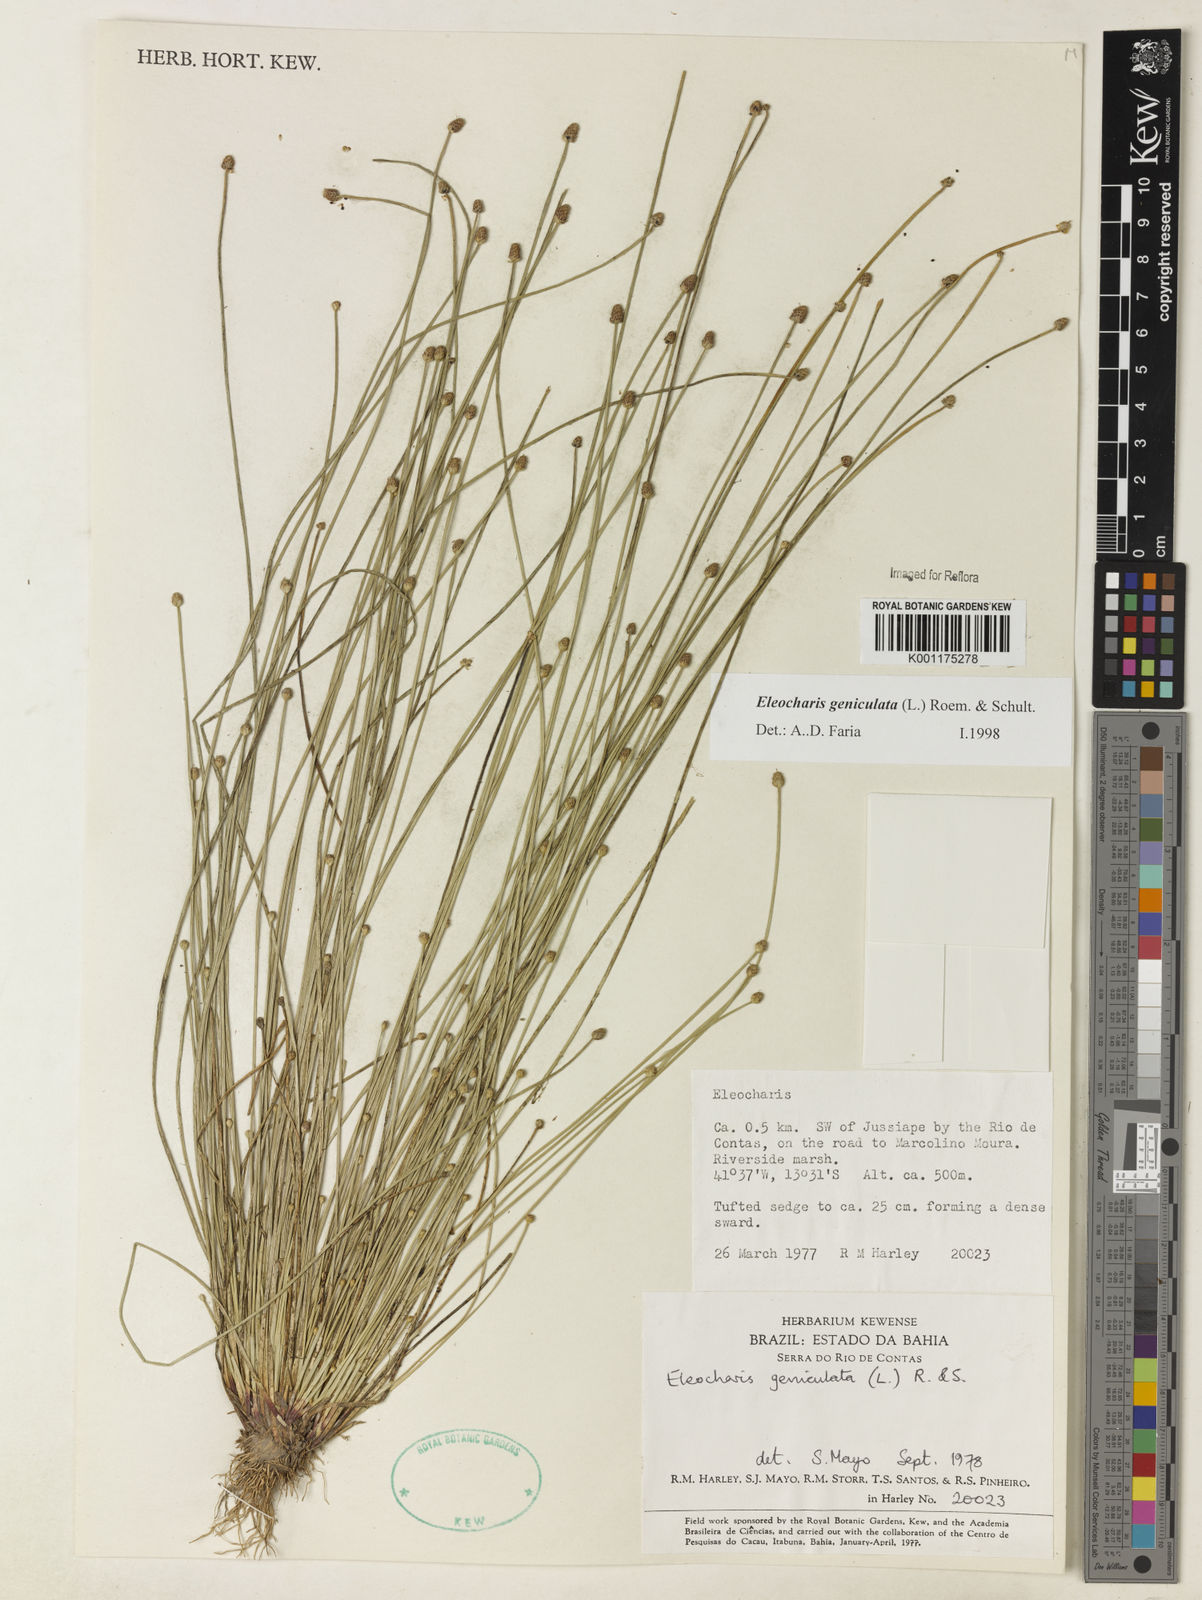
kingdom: Plantae
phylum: Tracheophyta
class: Liliopsida
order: Poales
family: Cyperaceae
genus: Eleocharis
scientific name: Eleocharis geniculata
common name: Canada spikesedge
